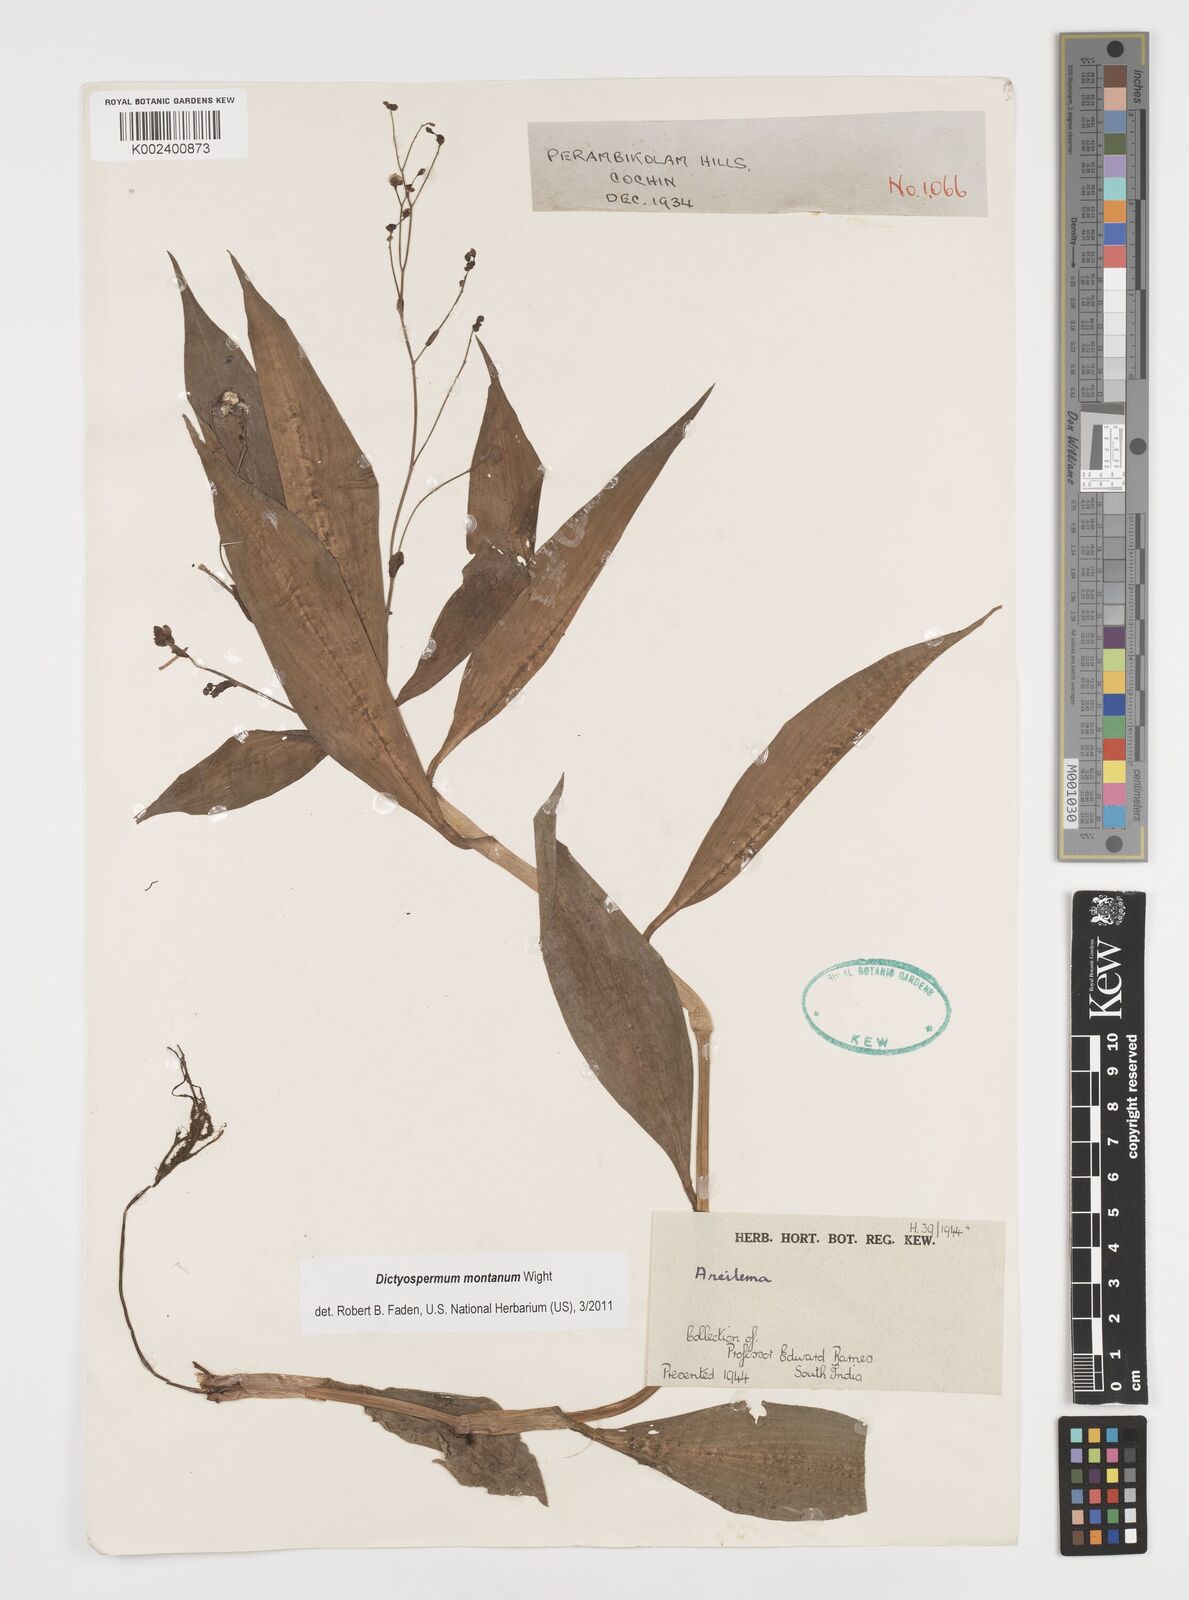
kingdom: Plantae
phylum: Tracheophyta
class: Liliopsida
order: Commelinales
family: Commelinaceae
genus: Dictyospermum
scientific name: Dictyospermum montanum
